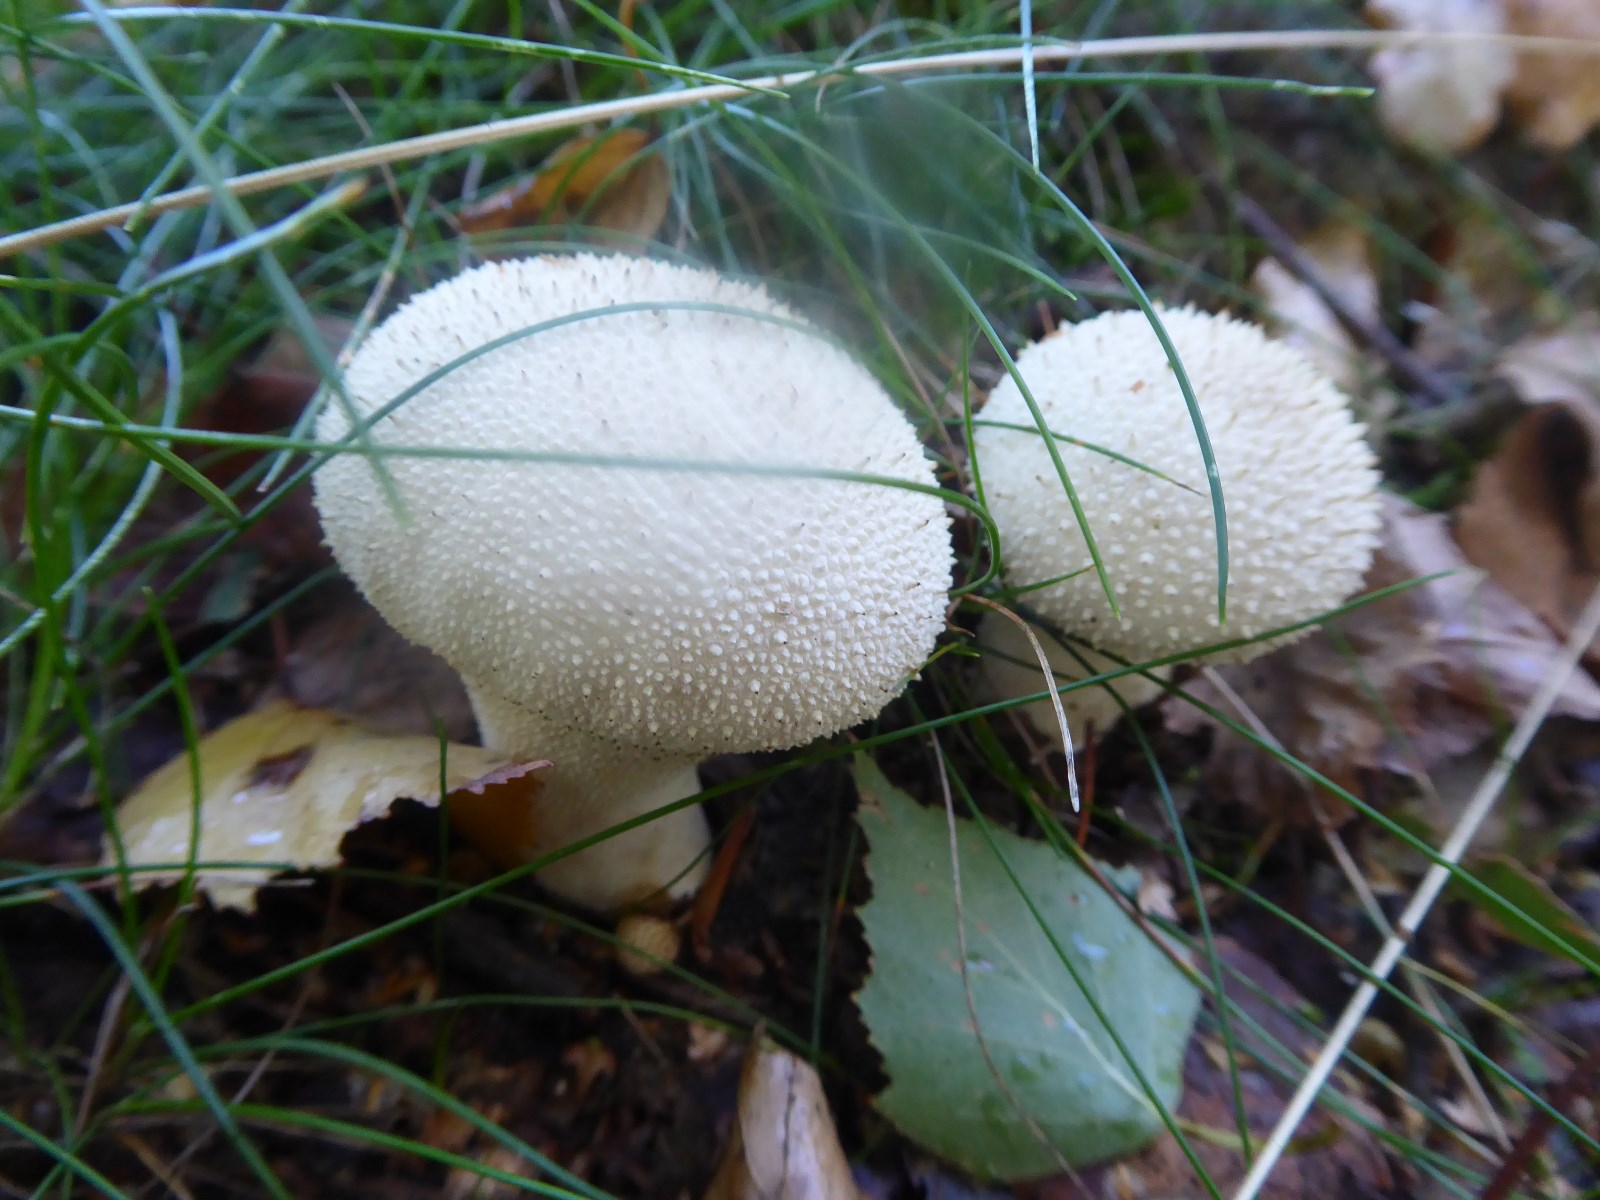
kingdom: Fungi
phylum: Basidiomycota
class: Agaricomycetes
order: Agaricales
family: Lycoperdaceae
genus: Lycoperdon
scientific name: Lycoperdon perlatum
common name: krystal-støvbold
